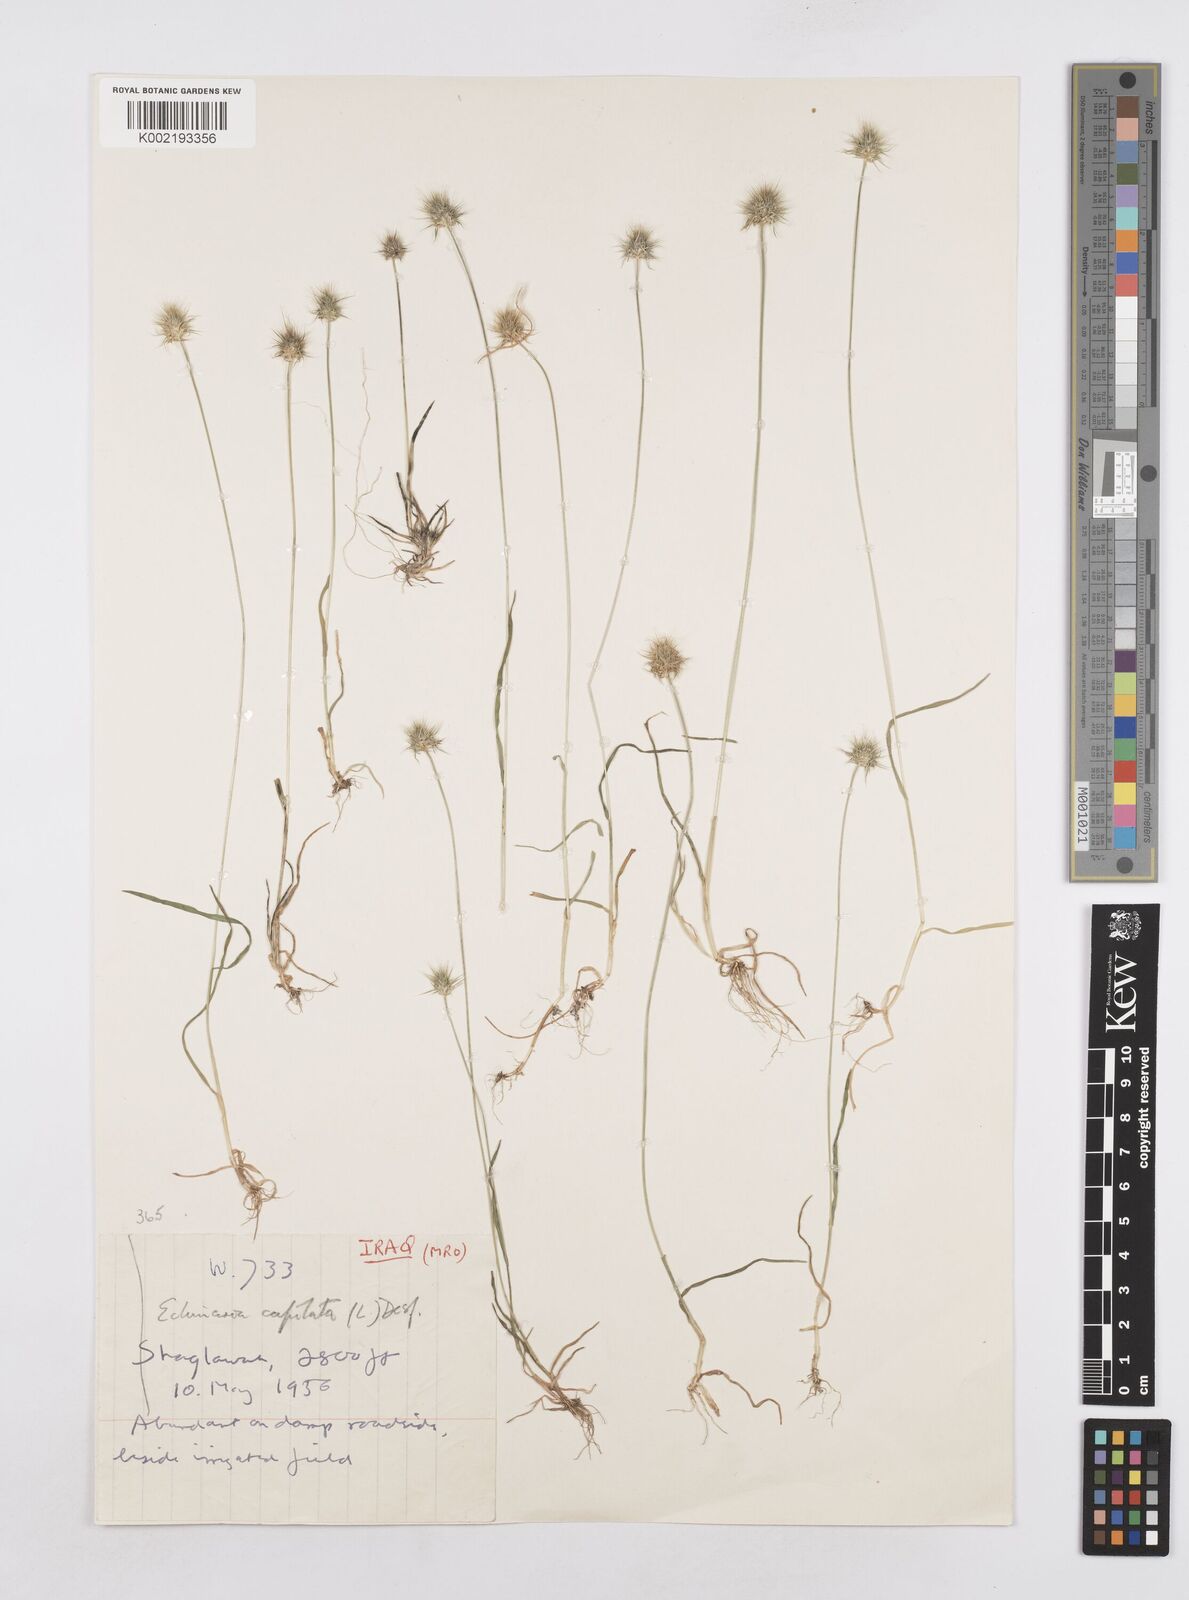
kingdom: Plantae
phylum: Tracheophyta
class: Liliopsida
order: Poales
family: Poaceae
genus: Echinaria
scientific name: Echinaria capitata
